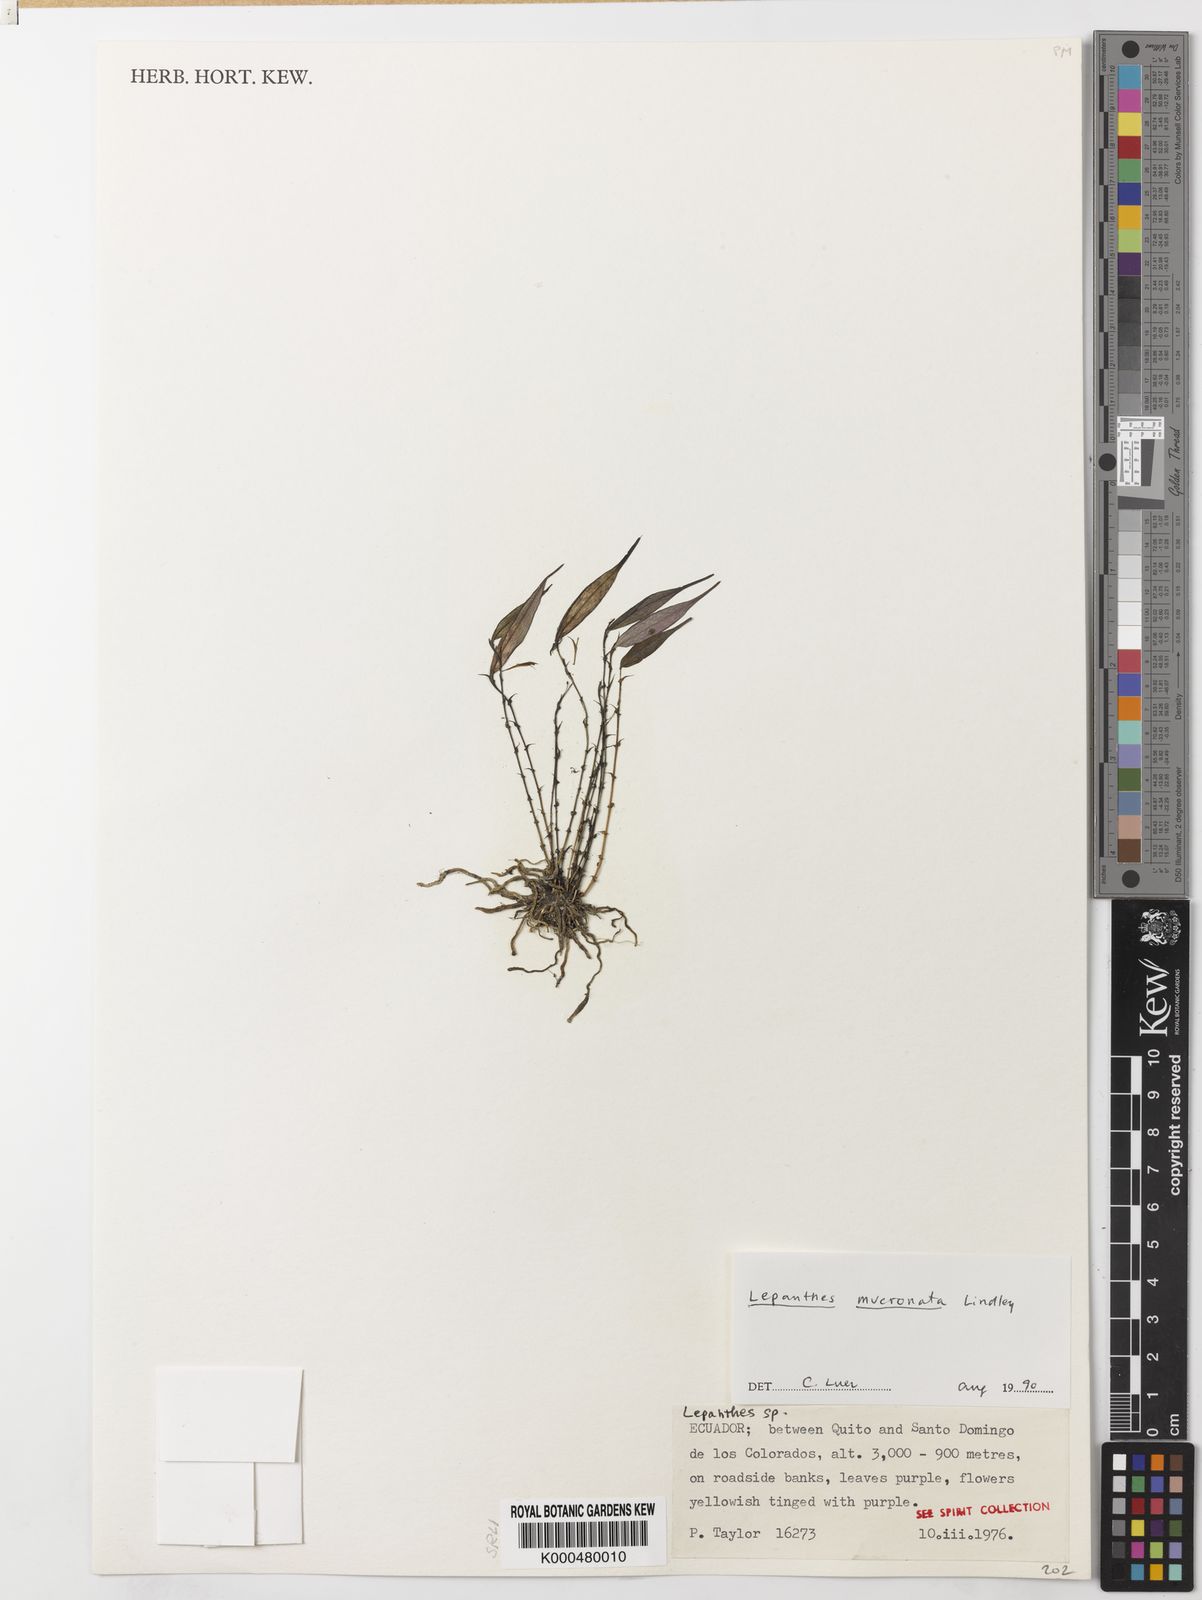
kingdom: Plantae
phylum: Tracheophyta
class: Liliopsida
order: Asparagales
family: Orchidaceae
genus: Lepanthes
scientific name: Lepanthes mucronata
